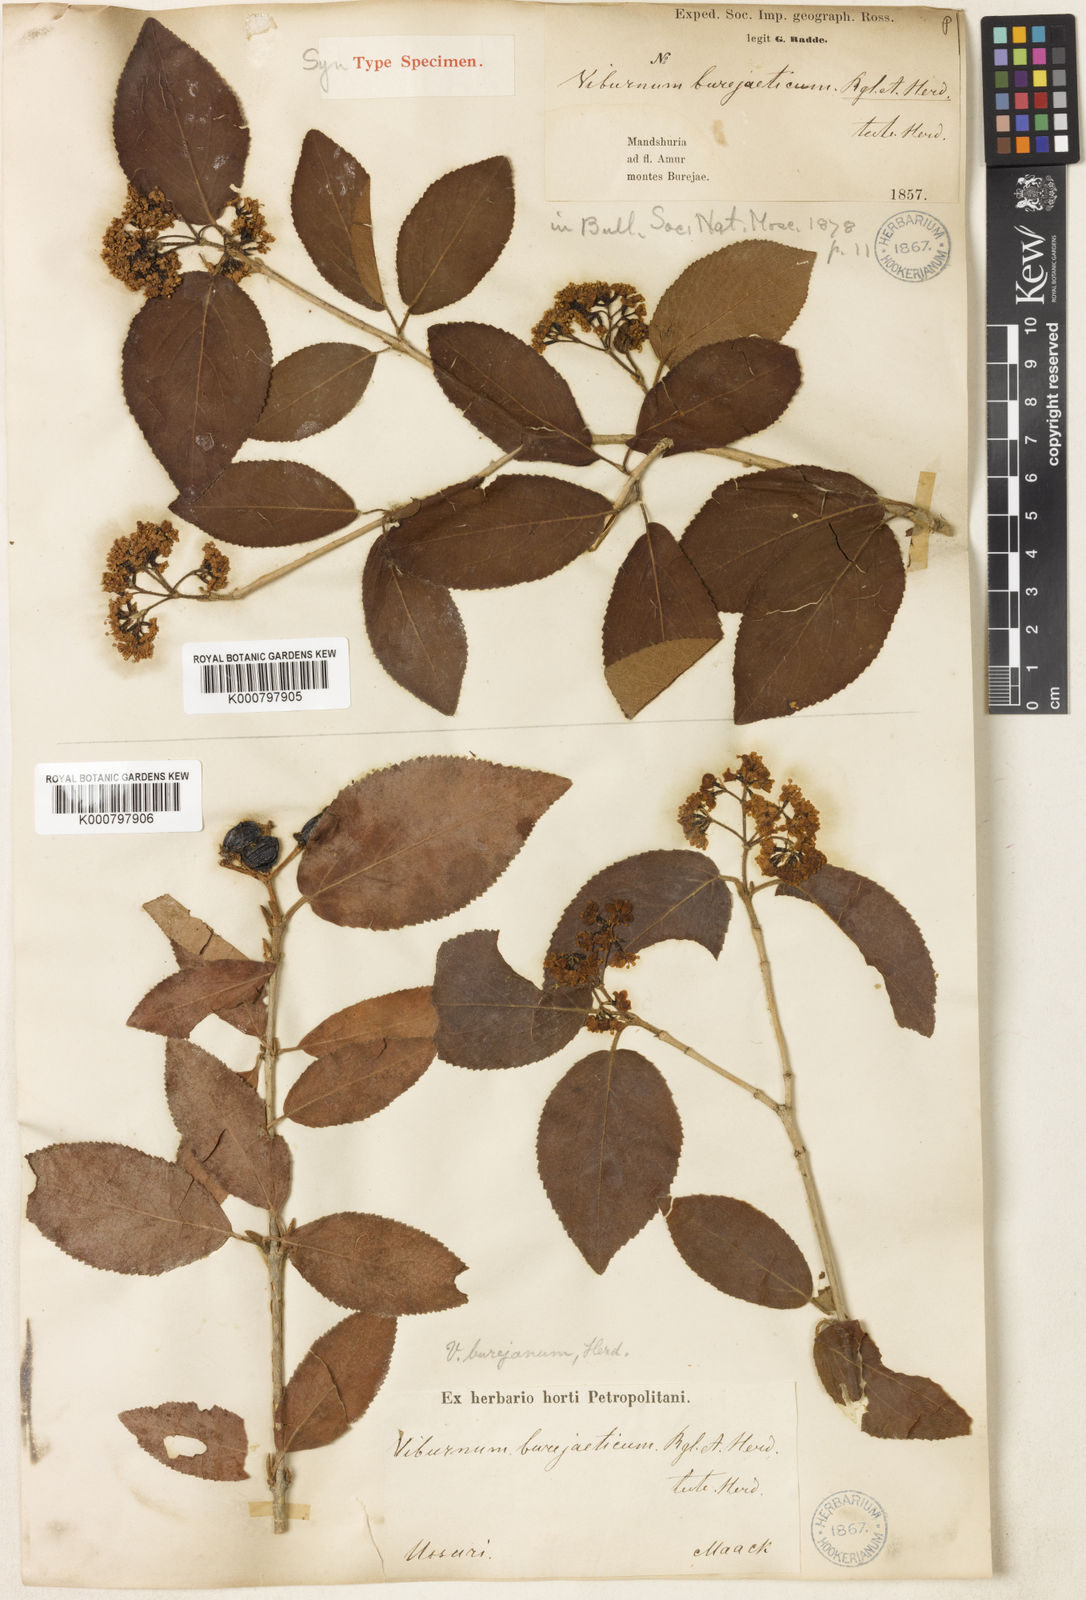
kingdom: Plantae
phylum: Tracheophyta
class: Magnoliopsida
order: Dipsacales
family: Viburnaceae
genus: Viburnum
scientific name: Viburnum burejaeticum
